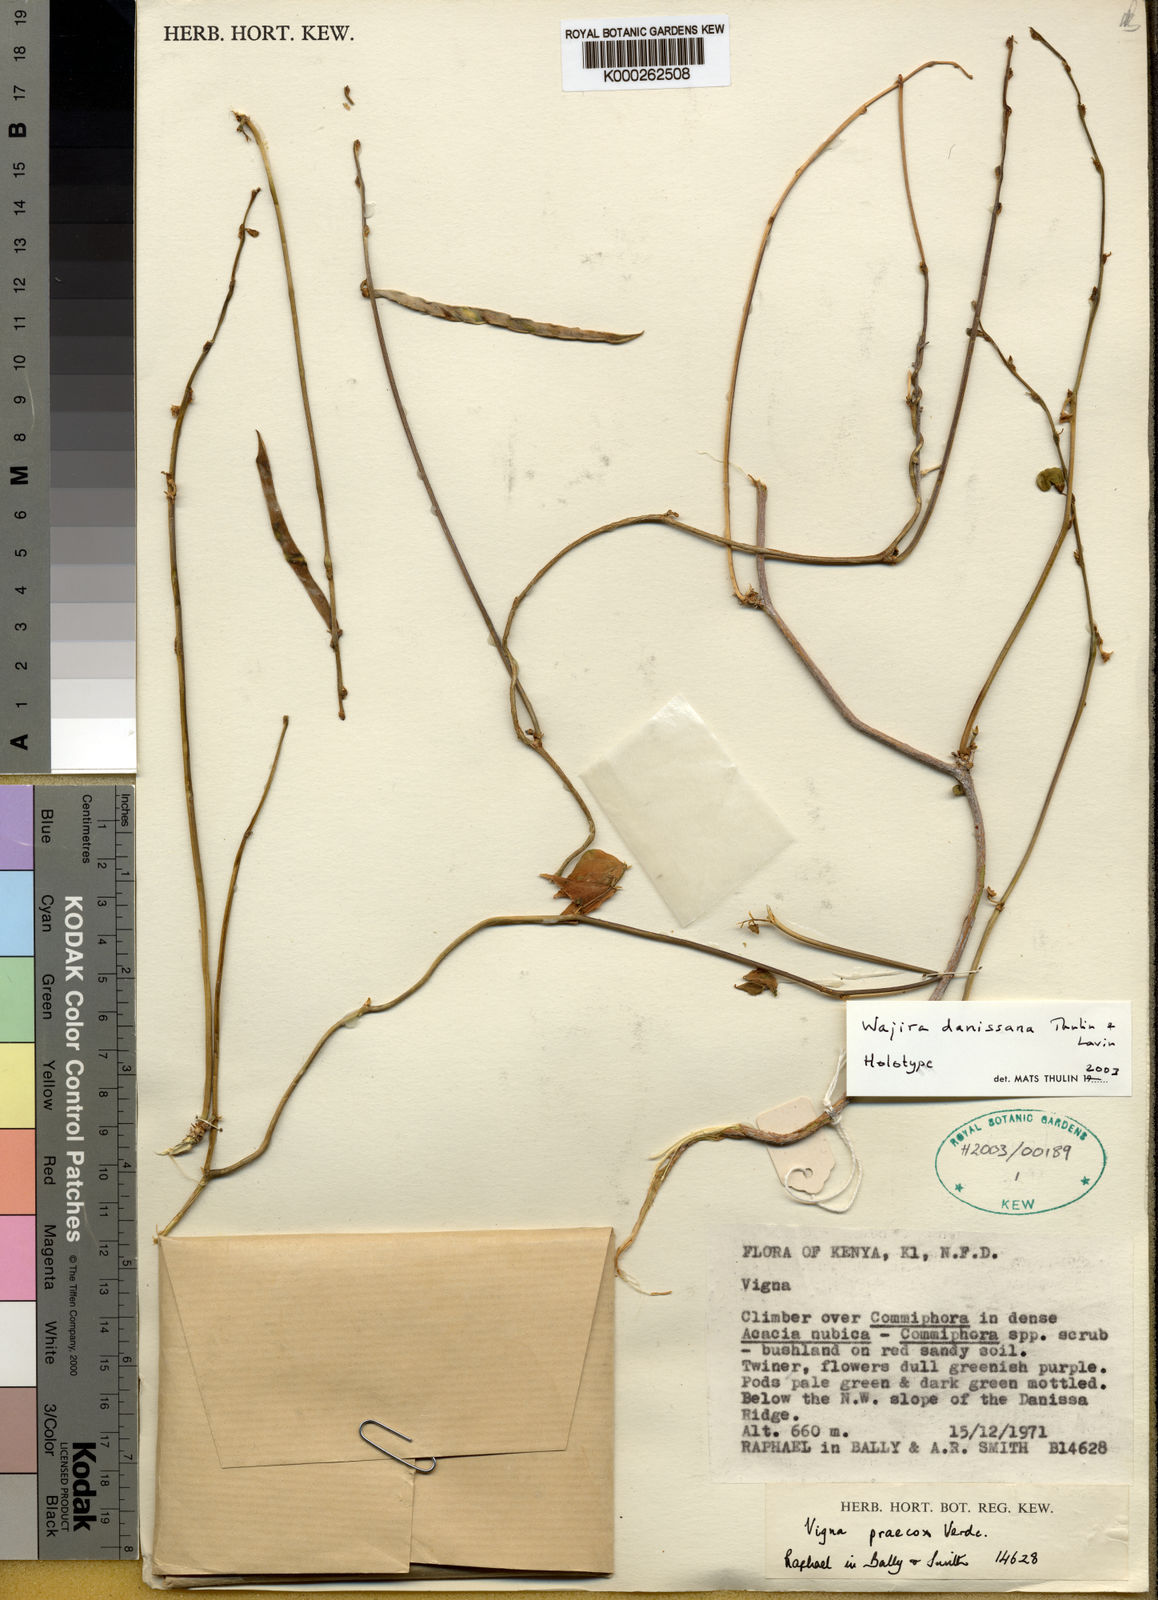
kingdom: Plantae
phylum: Tracheophyta
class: Magnoliopsida
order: Fabales
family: Fabaceae
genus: Wajira
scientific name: Wajira danissana
